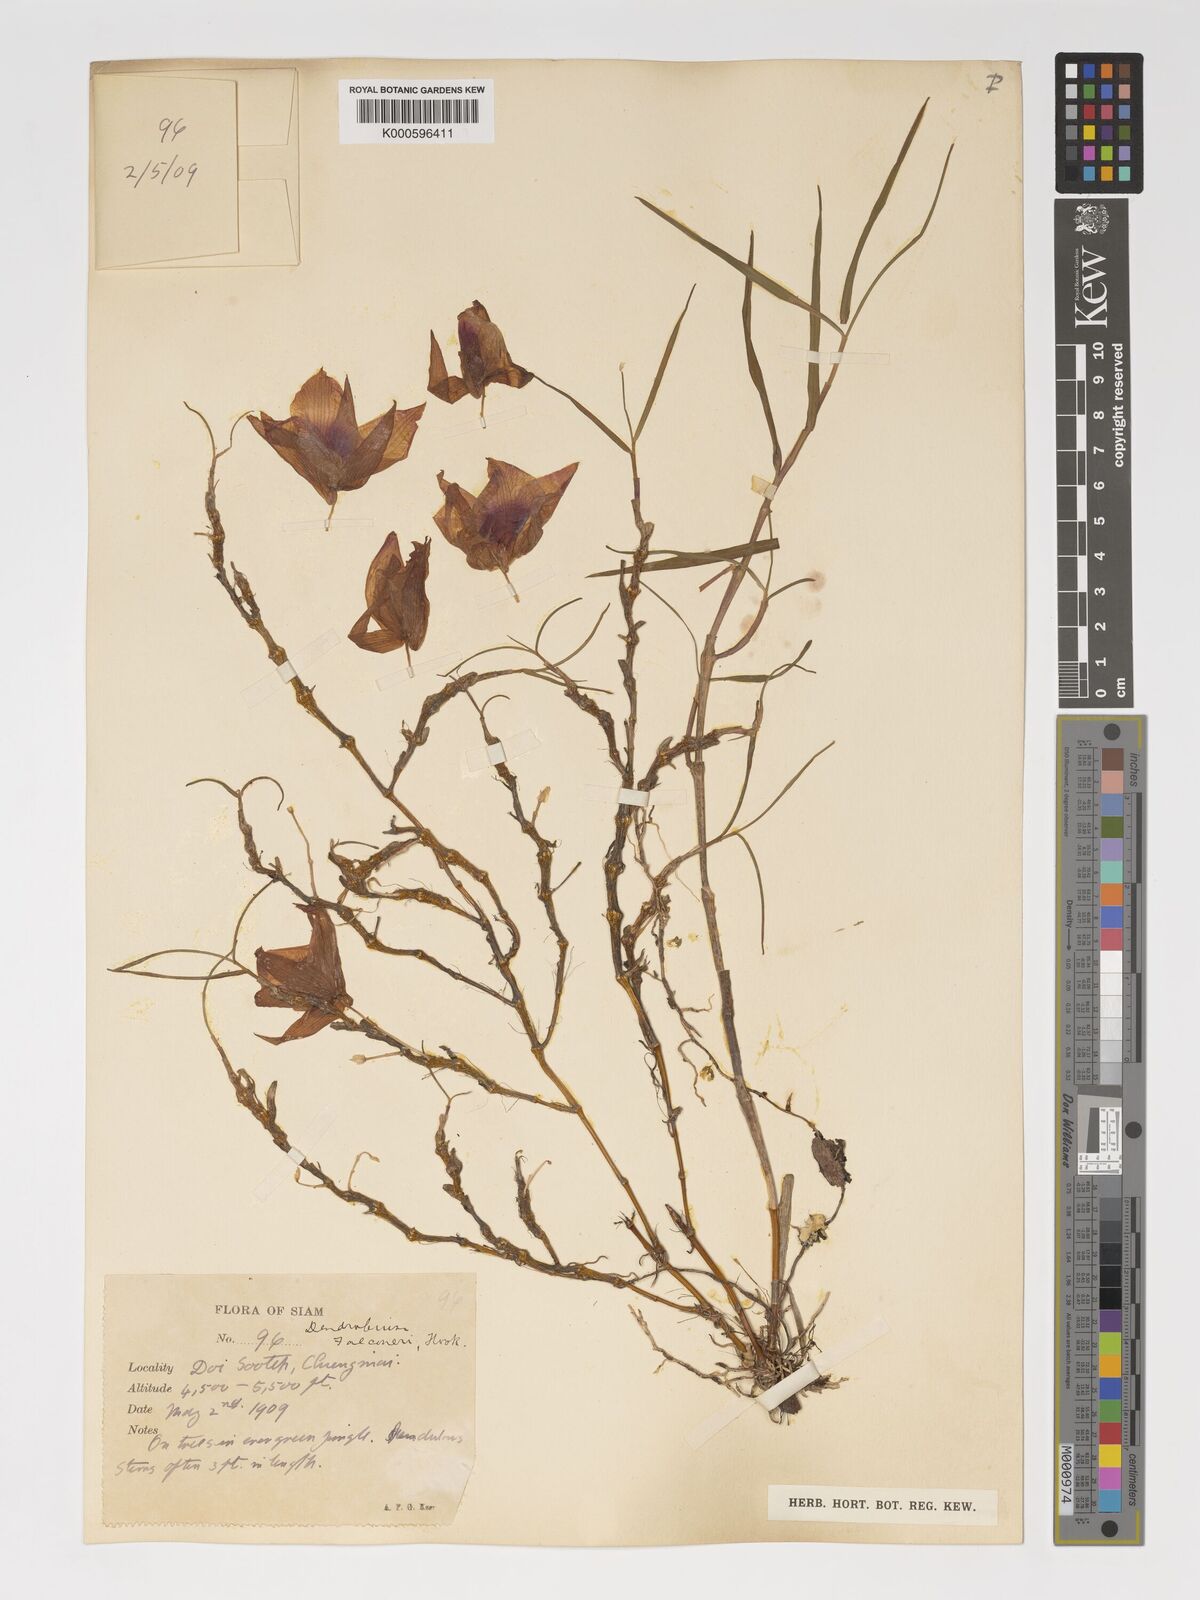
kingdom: Plantae
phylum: Tracheophyta
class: Liliopsida
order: Asparagales
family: Orchidaceae
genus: Dendrobium
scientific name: Dendrobium falconeri
